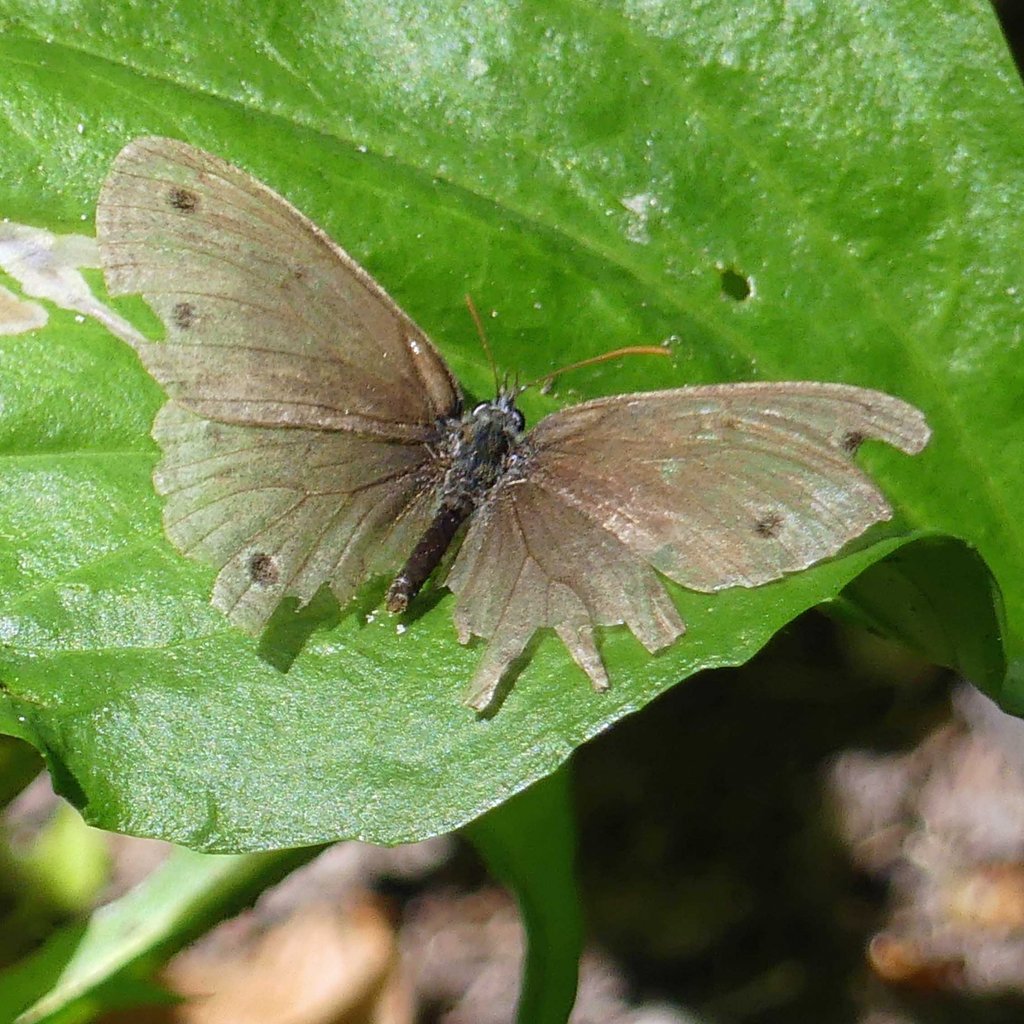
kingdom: Animalia
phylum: Arthropoda
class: Insecta
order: Lepidoptera
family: Nymphalidae
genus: Euptychia
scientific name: Euptychia cymela
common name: Little Wood Satyr
